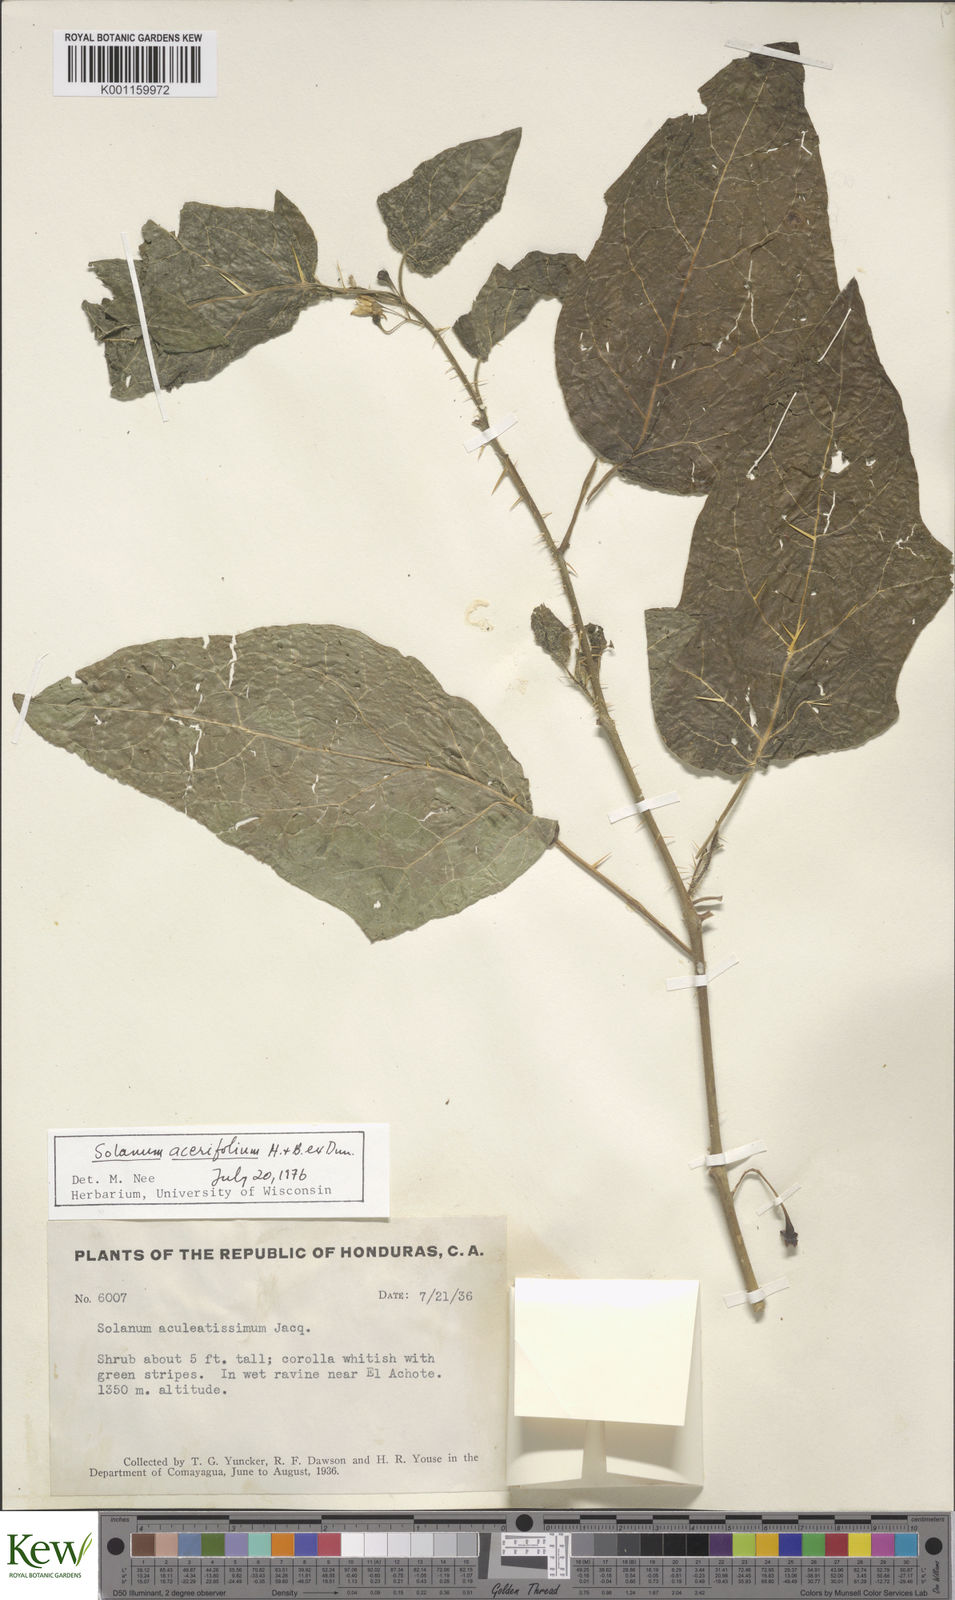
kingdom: Plantae
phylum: Tracheophyta
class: Magnoliopsida
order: Solanales
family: Solanaceae
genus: Solanum
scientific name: Solanum acerifolium
